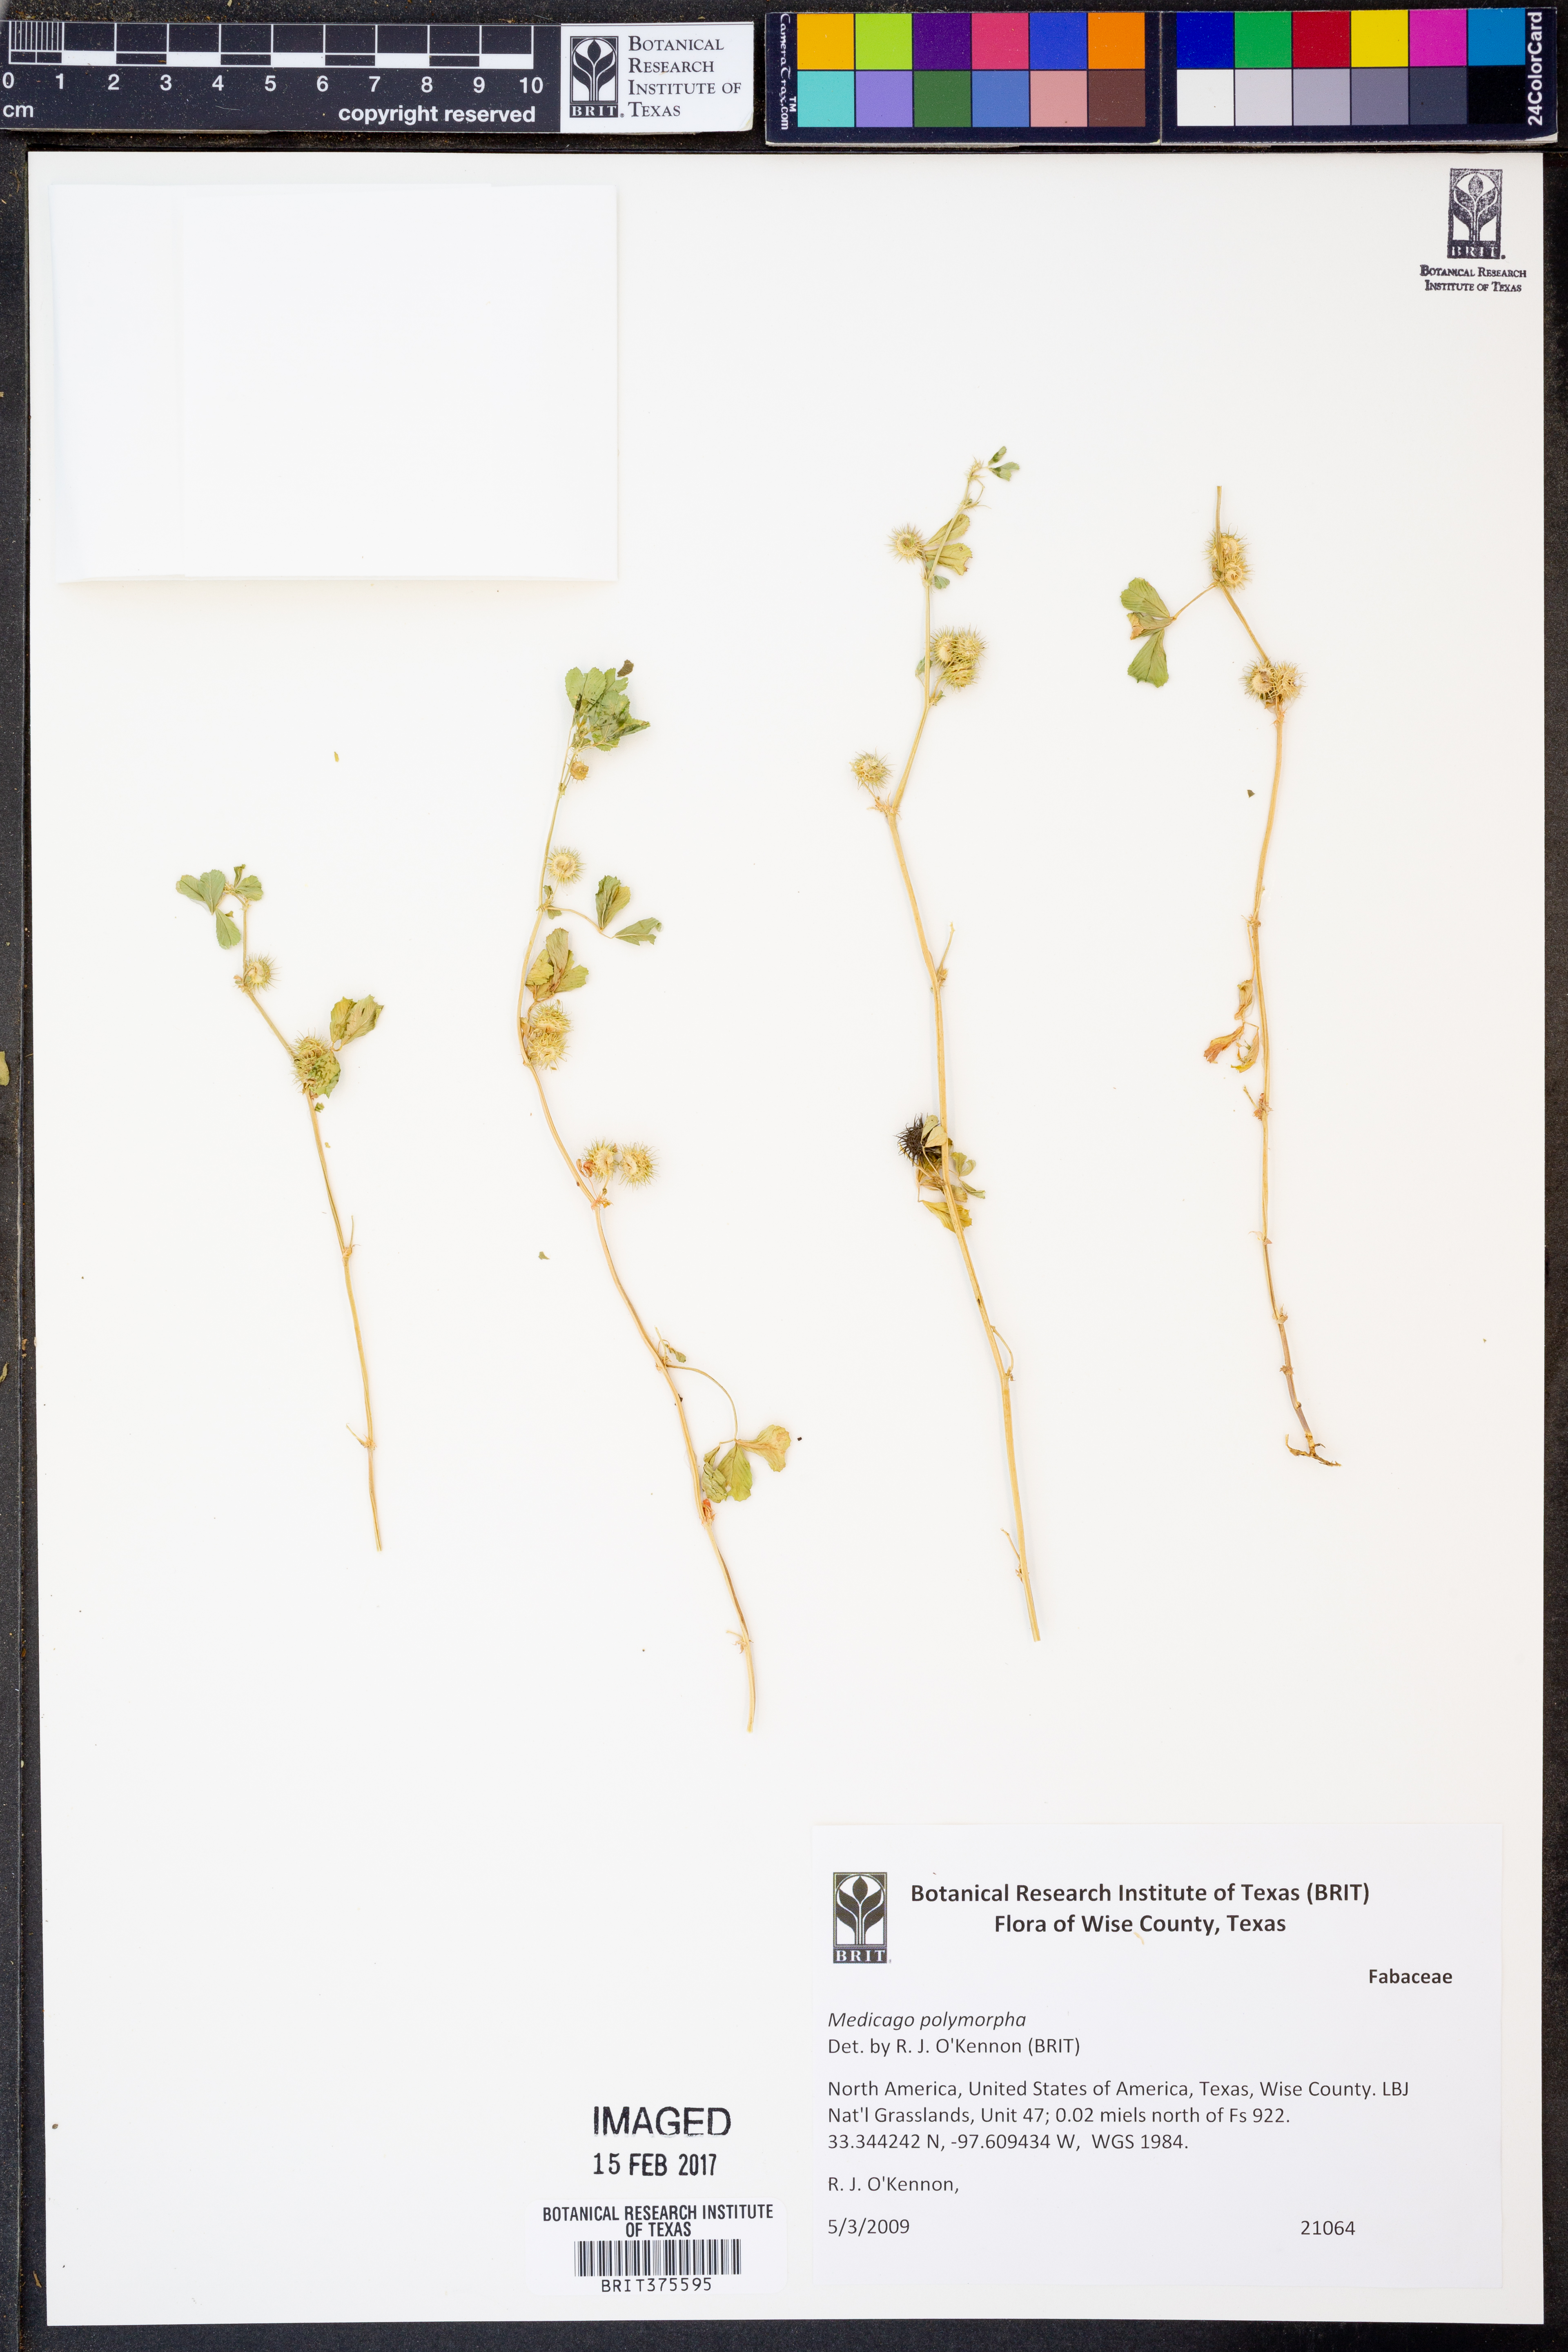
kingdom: Plantae
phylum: Tracheophyta
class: Magnoliopsida
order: Fabales
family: Fabaceae
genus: Medicago
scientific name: Medicago polymorpha
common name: Burclover
